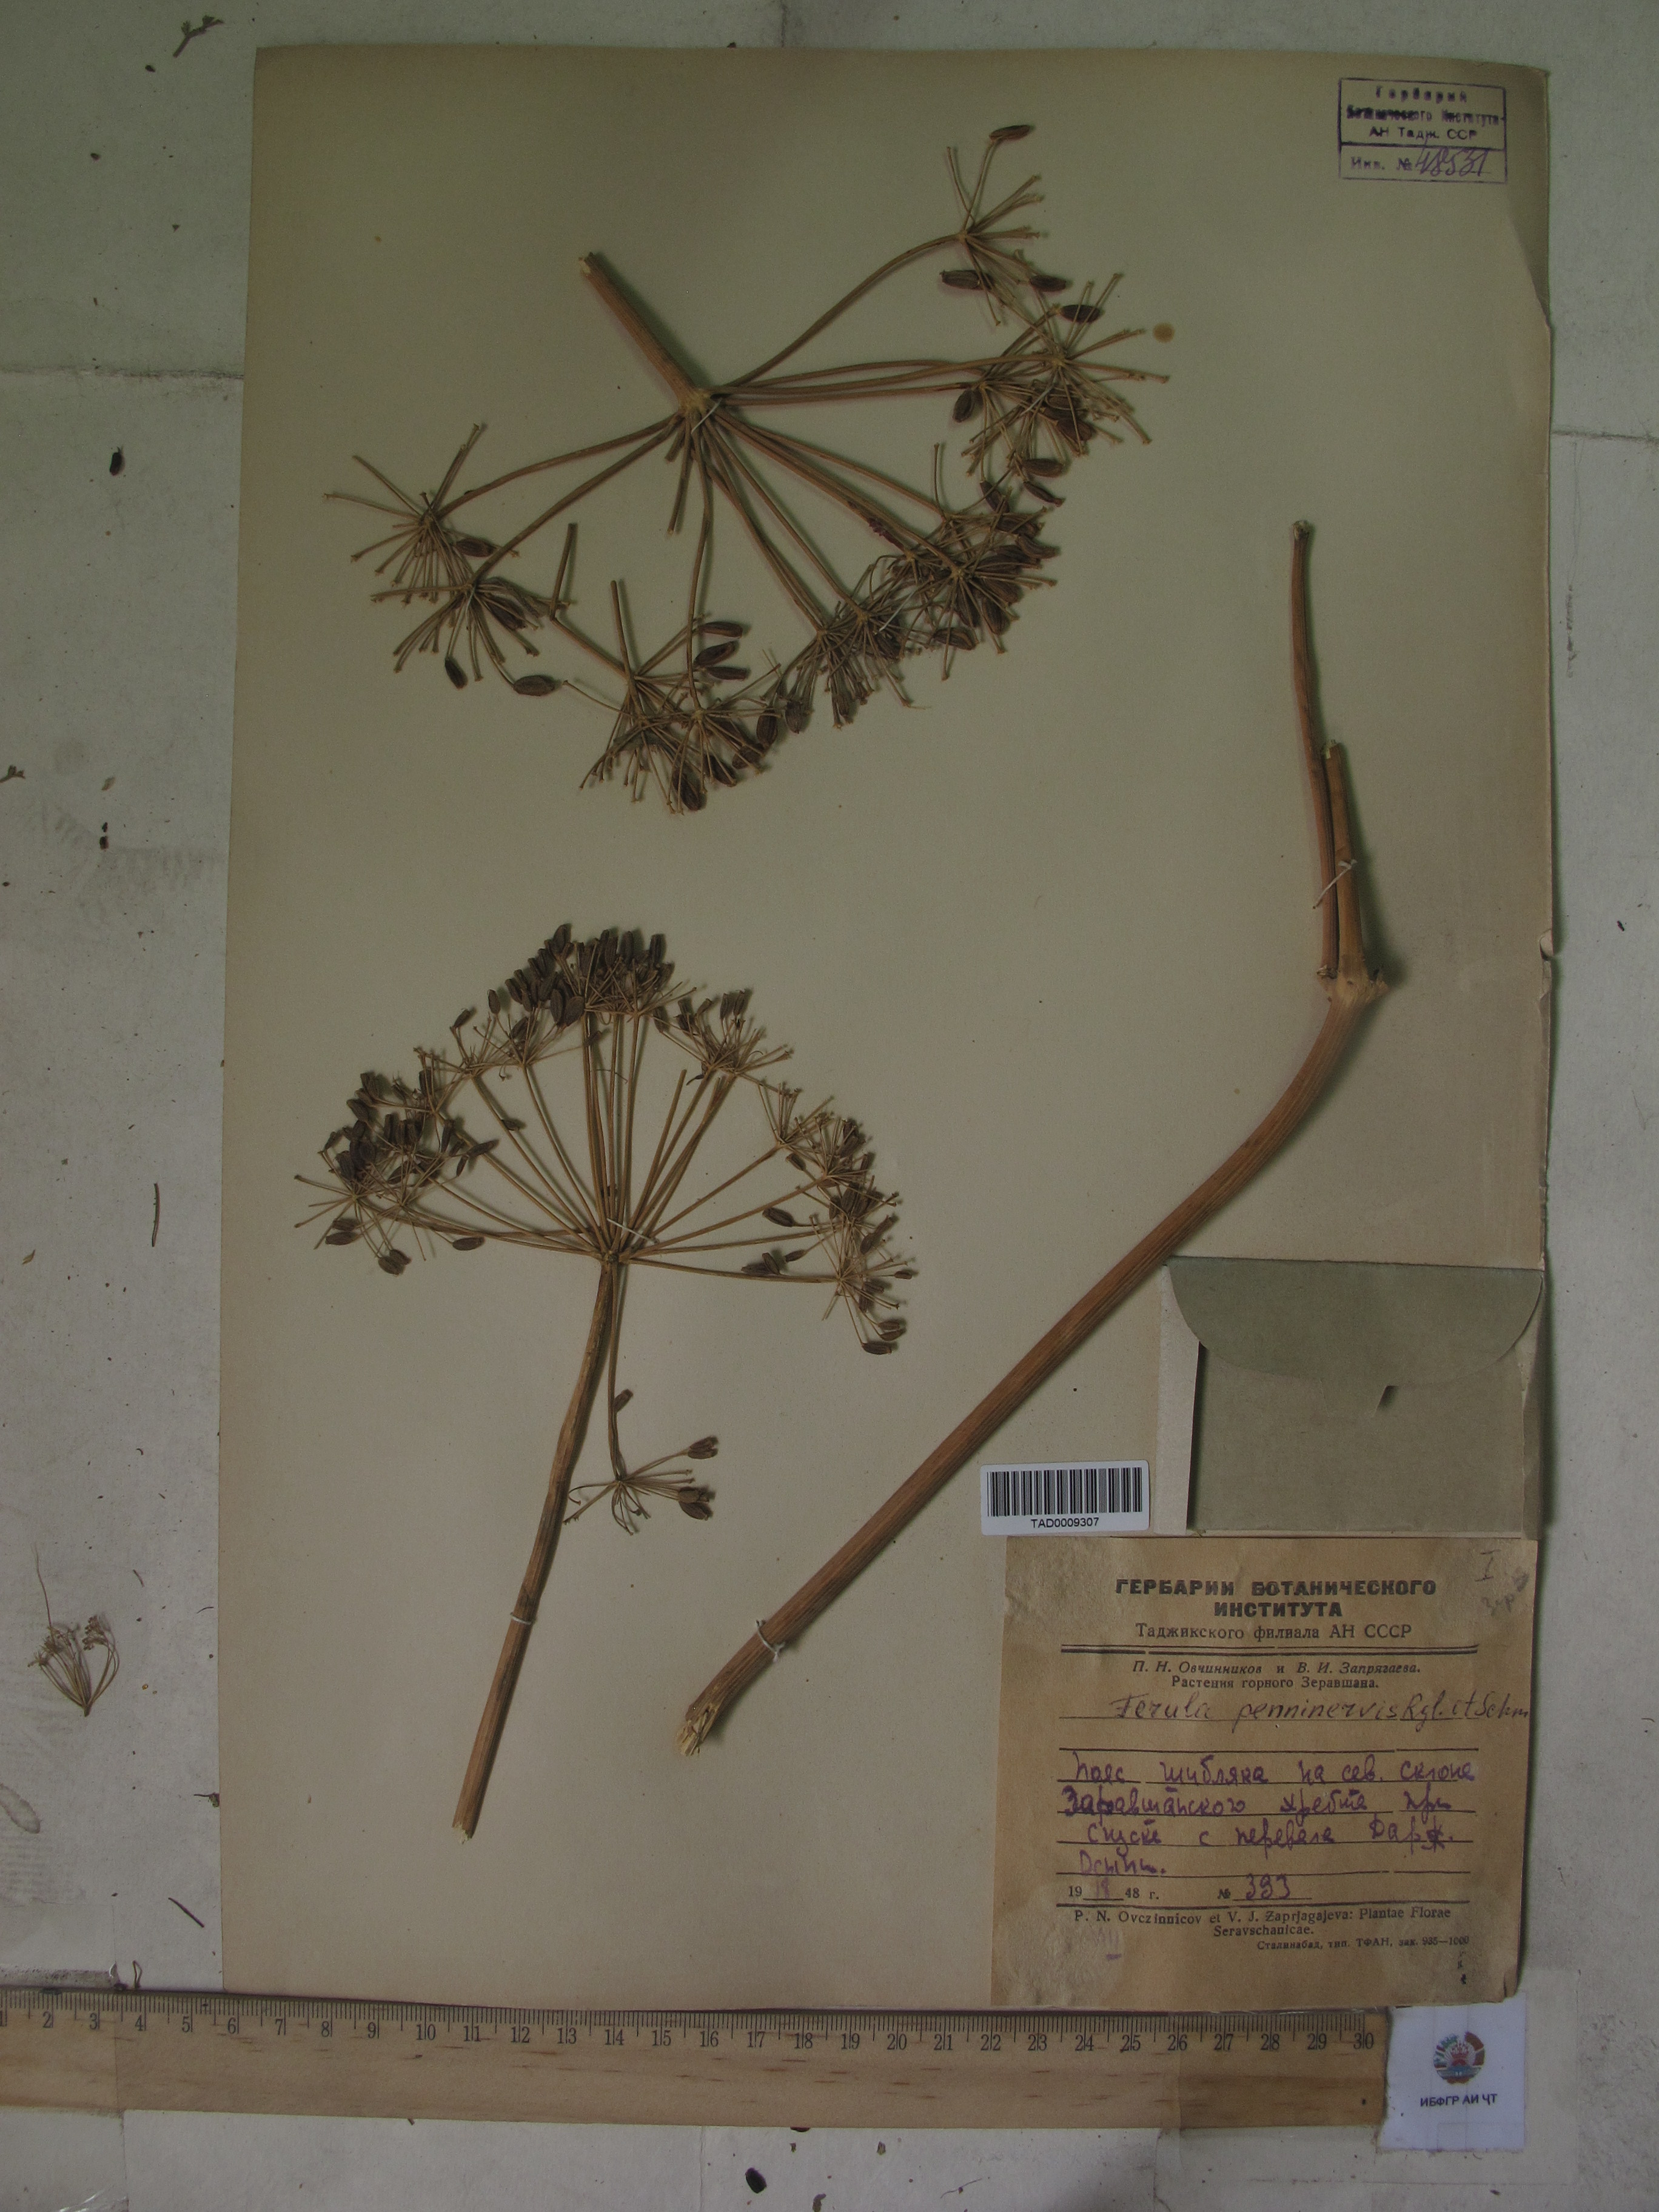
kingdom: Plantae
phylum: Tracheophyta
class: Magnoliopsida
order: Apiales
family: Apiaceae
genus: Ferula
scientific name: Ferula penninervis
